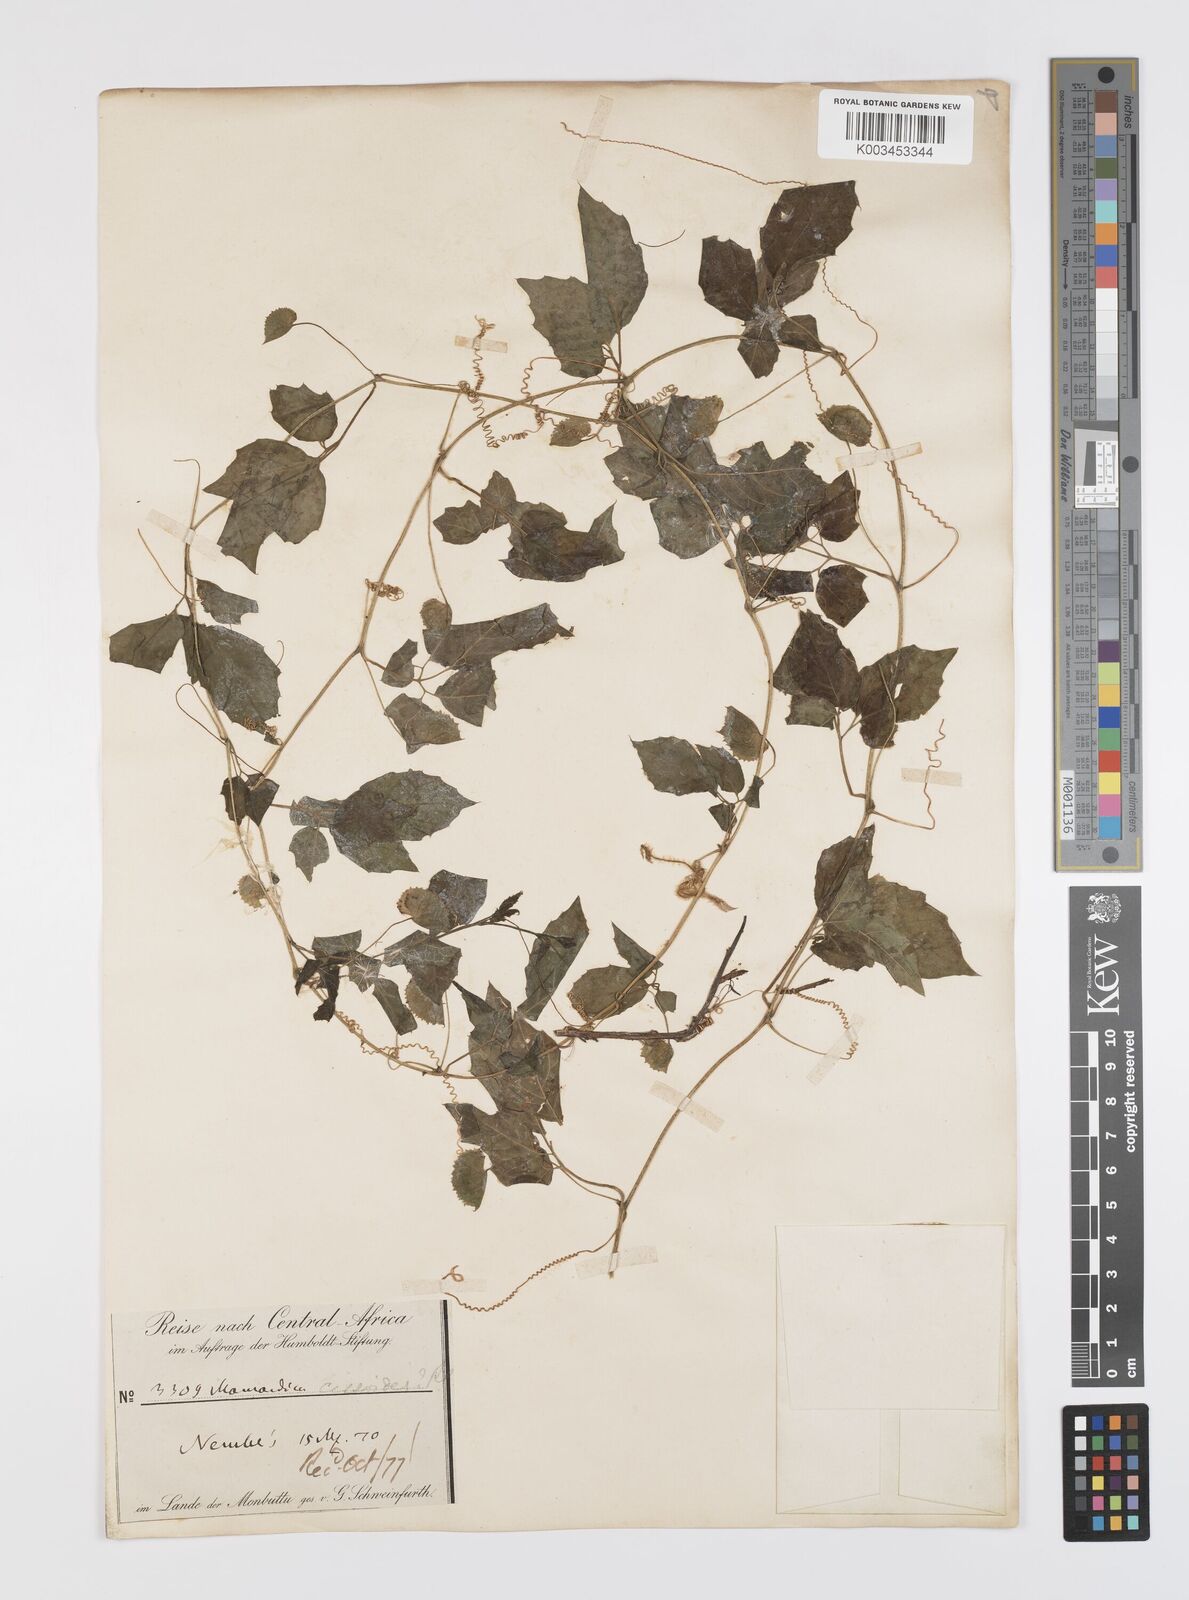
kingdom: Plantae
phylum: Tracheophyta
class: Magnoliopsida
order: Cucurbitales
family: Cucurbitaceae
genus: Momordica
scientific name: Momordica cissoides
